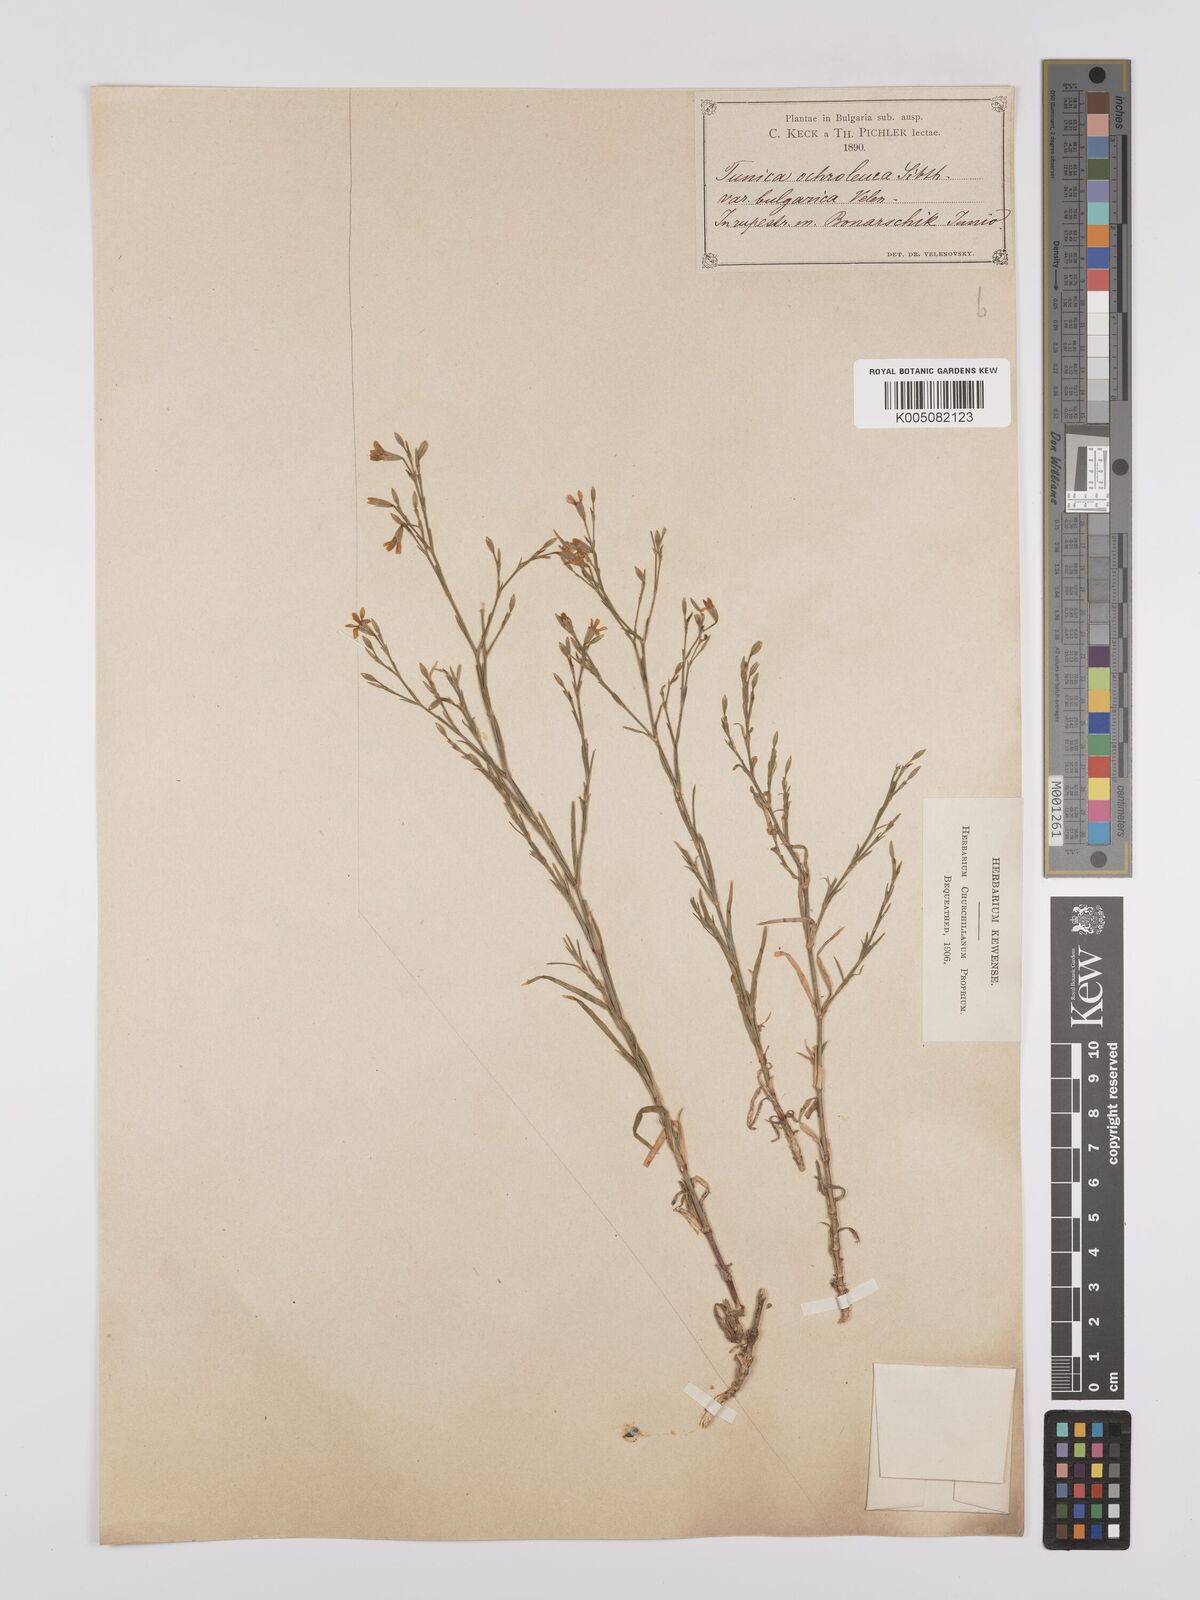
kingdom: Plantae
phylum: Tracheophyta
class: Magnoliopsida
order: Caryophyllales
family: Caryophyllaceae
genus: Dianthus
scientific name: Dianthus illyricus
